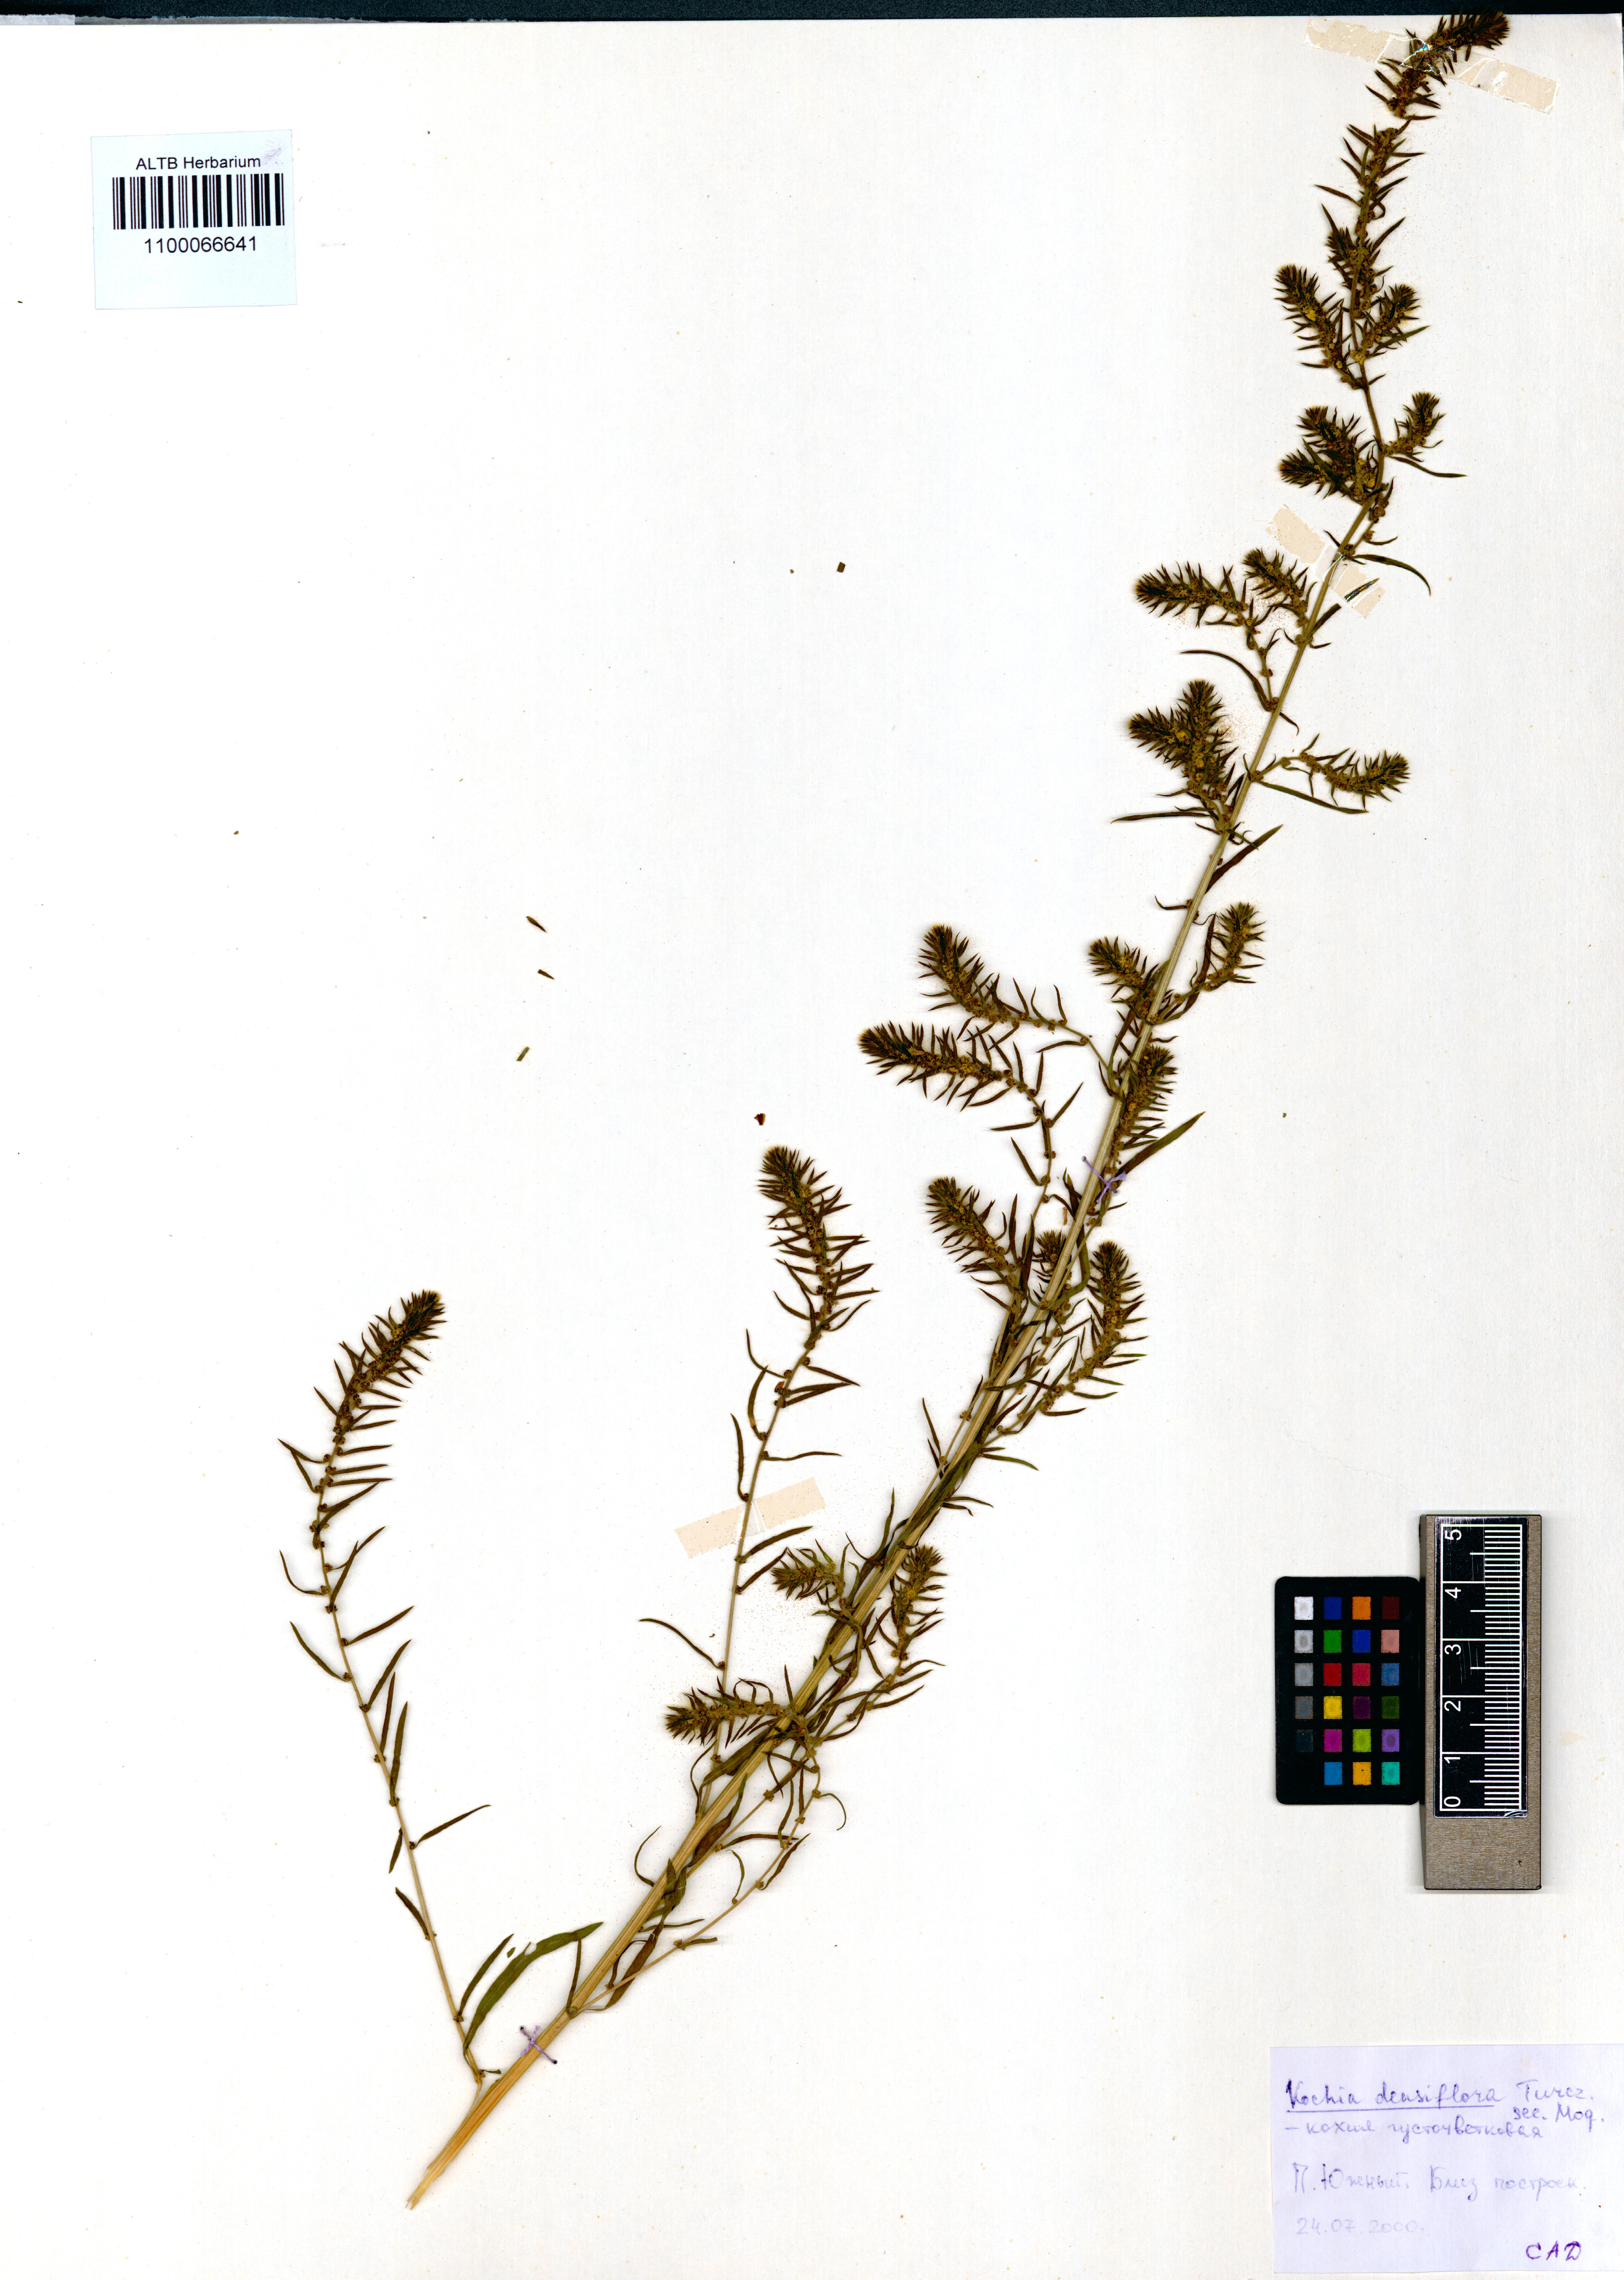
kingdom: Plantae
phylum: Tracheophyta
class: Magnoliopsida
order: Caryophyllales
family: Amaranthaceae
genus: Bassia
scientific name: Bassia scoparia
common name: Belvedere
